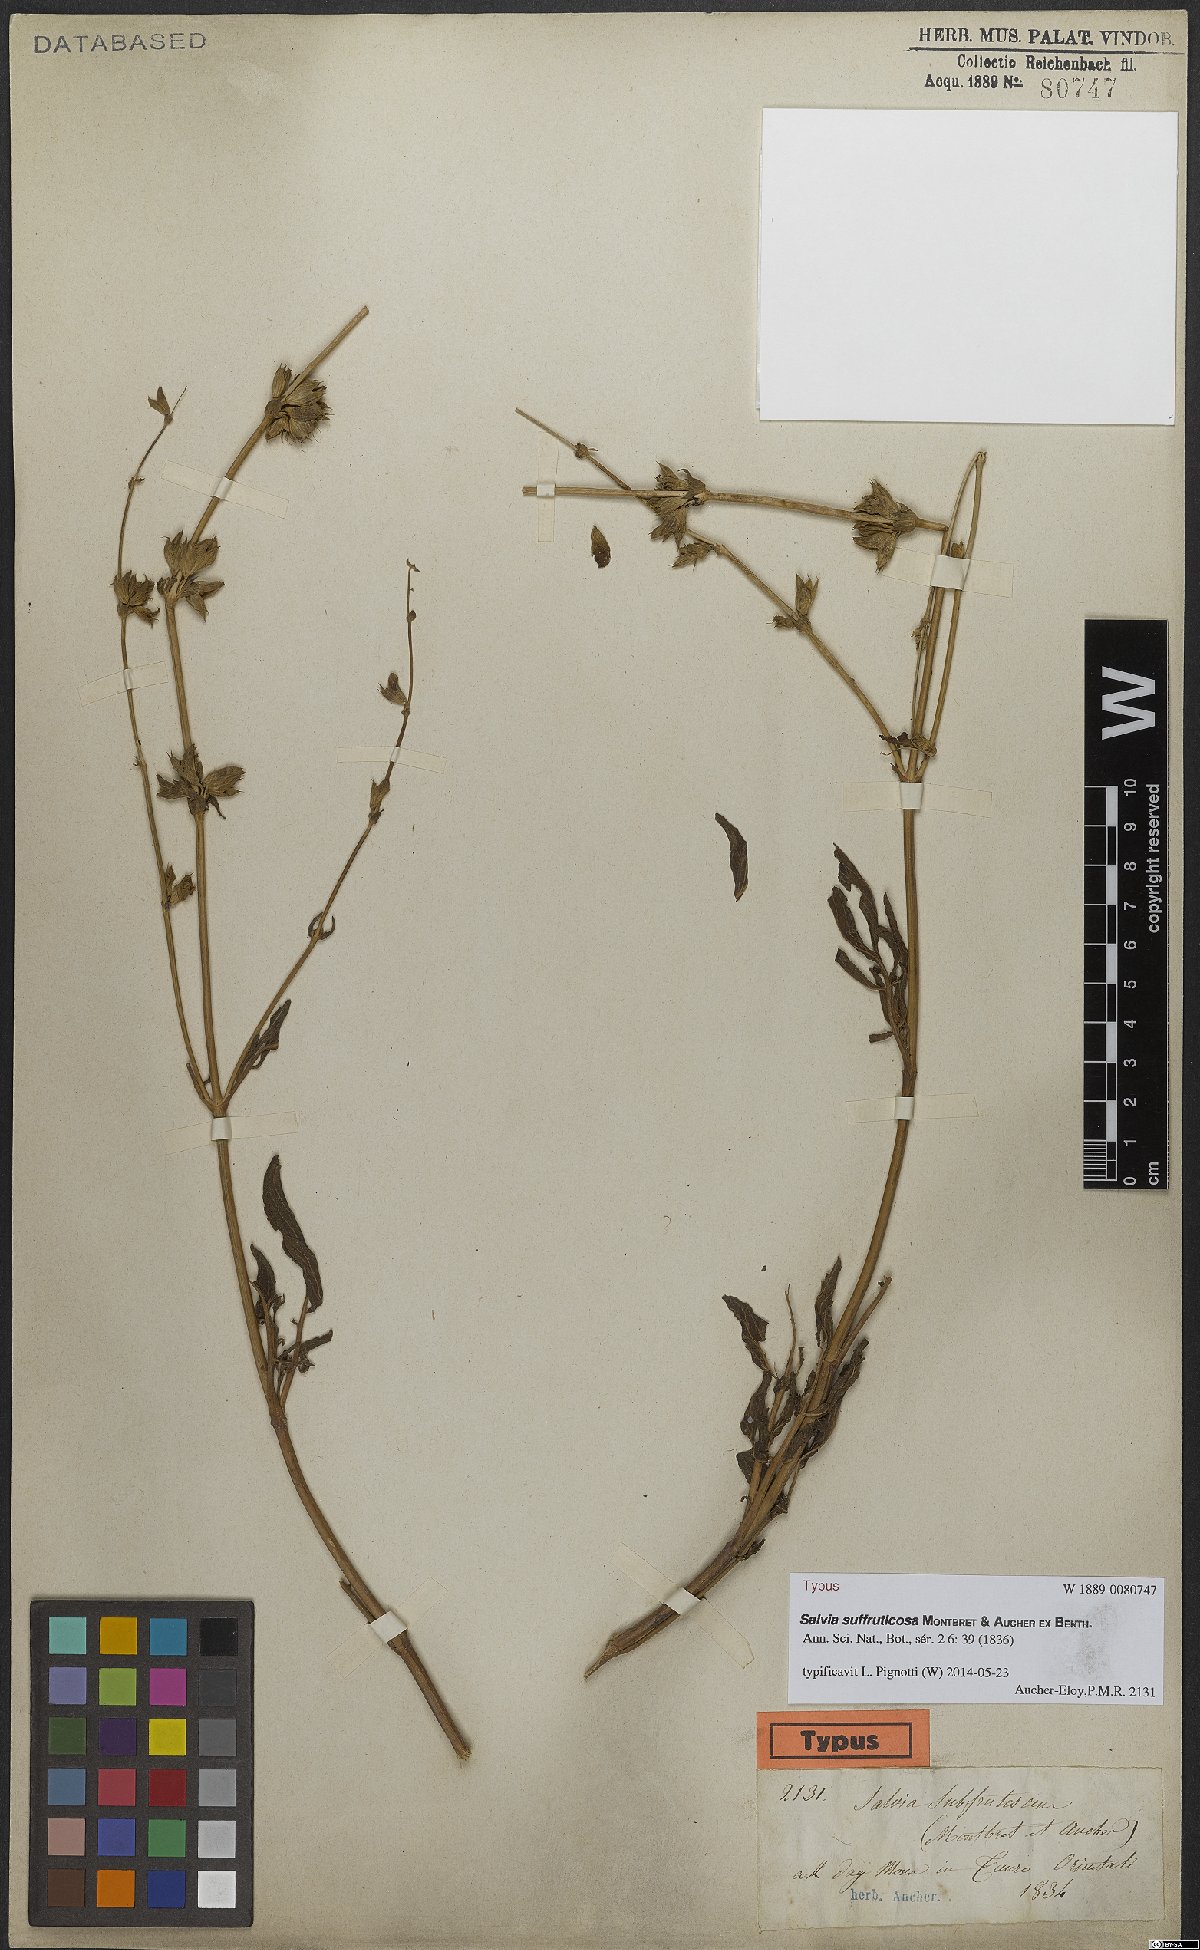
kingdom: Plantae
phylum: Tracheophyta
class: Magnoliopsida
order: Lamiales
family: Lamiaceae
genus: Salvia
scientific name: Salvia suffruticosa
